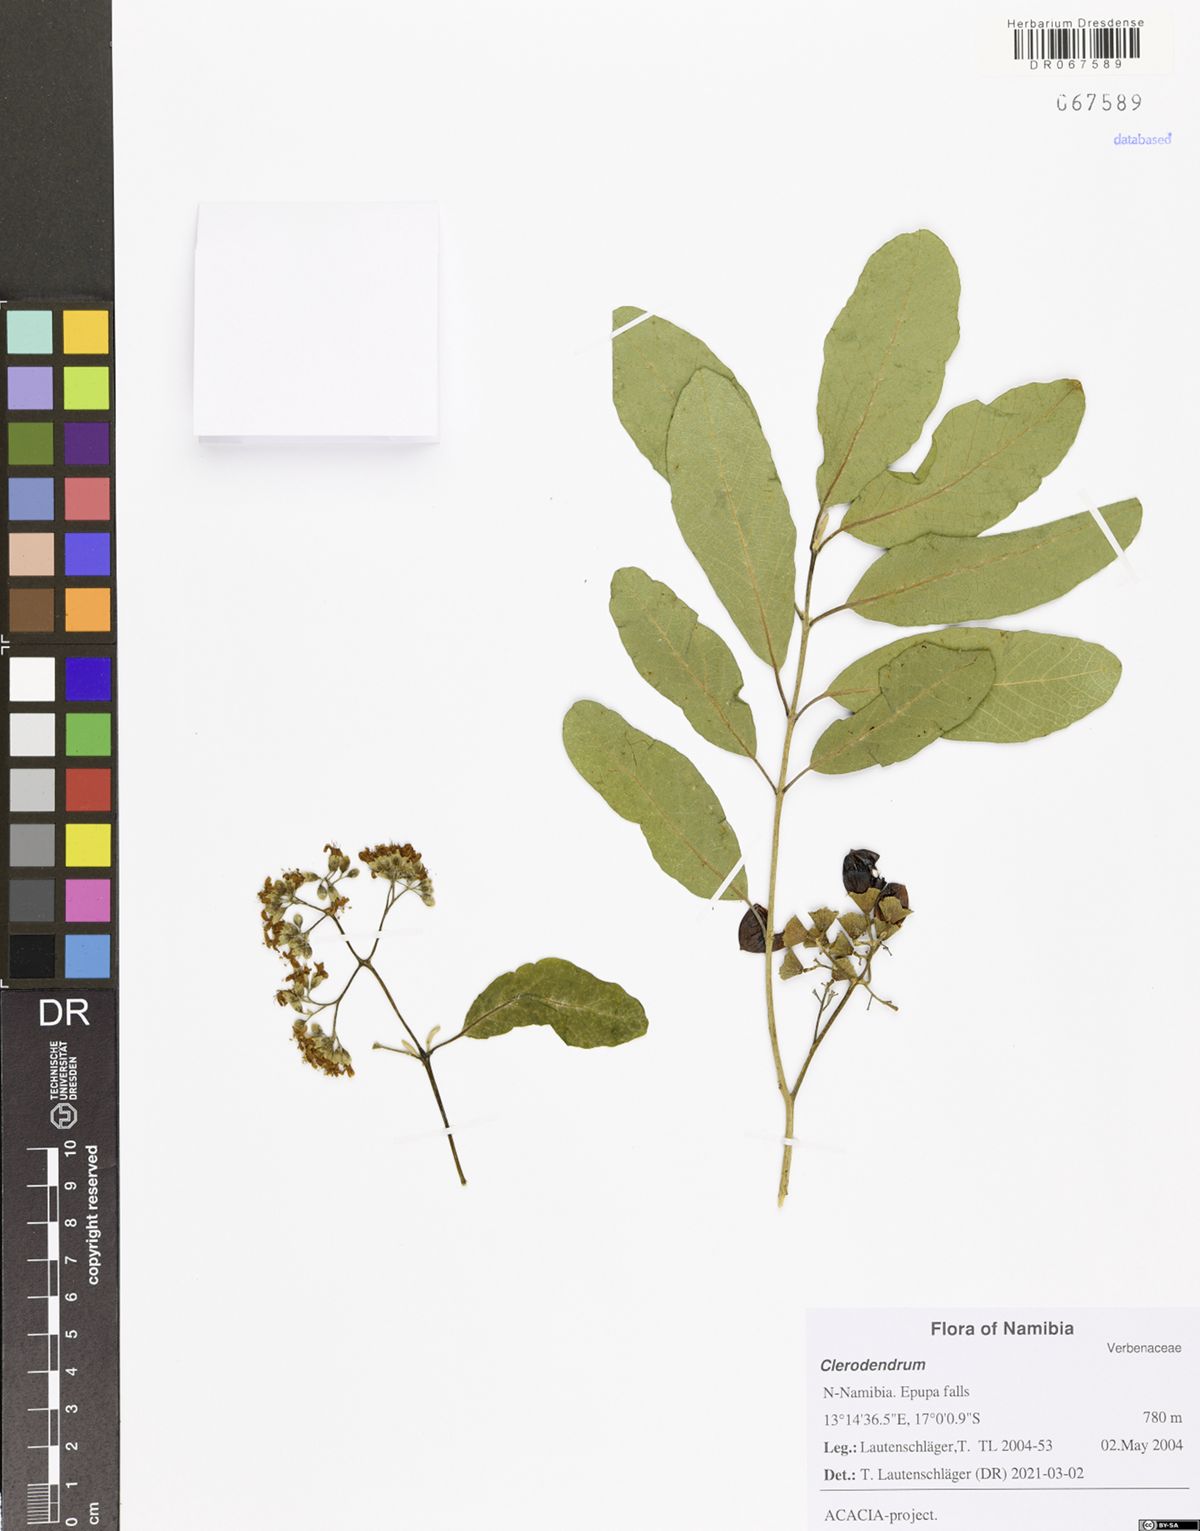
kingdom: Plantae
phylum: Tracheophyta
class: Magnoliopsida
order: Lamiales
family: Lamiaceae
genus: Clerodendrum
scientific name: Clerodendrum
